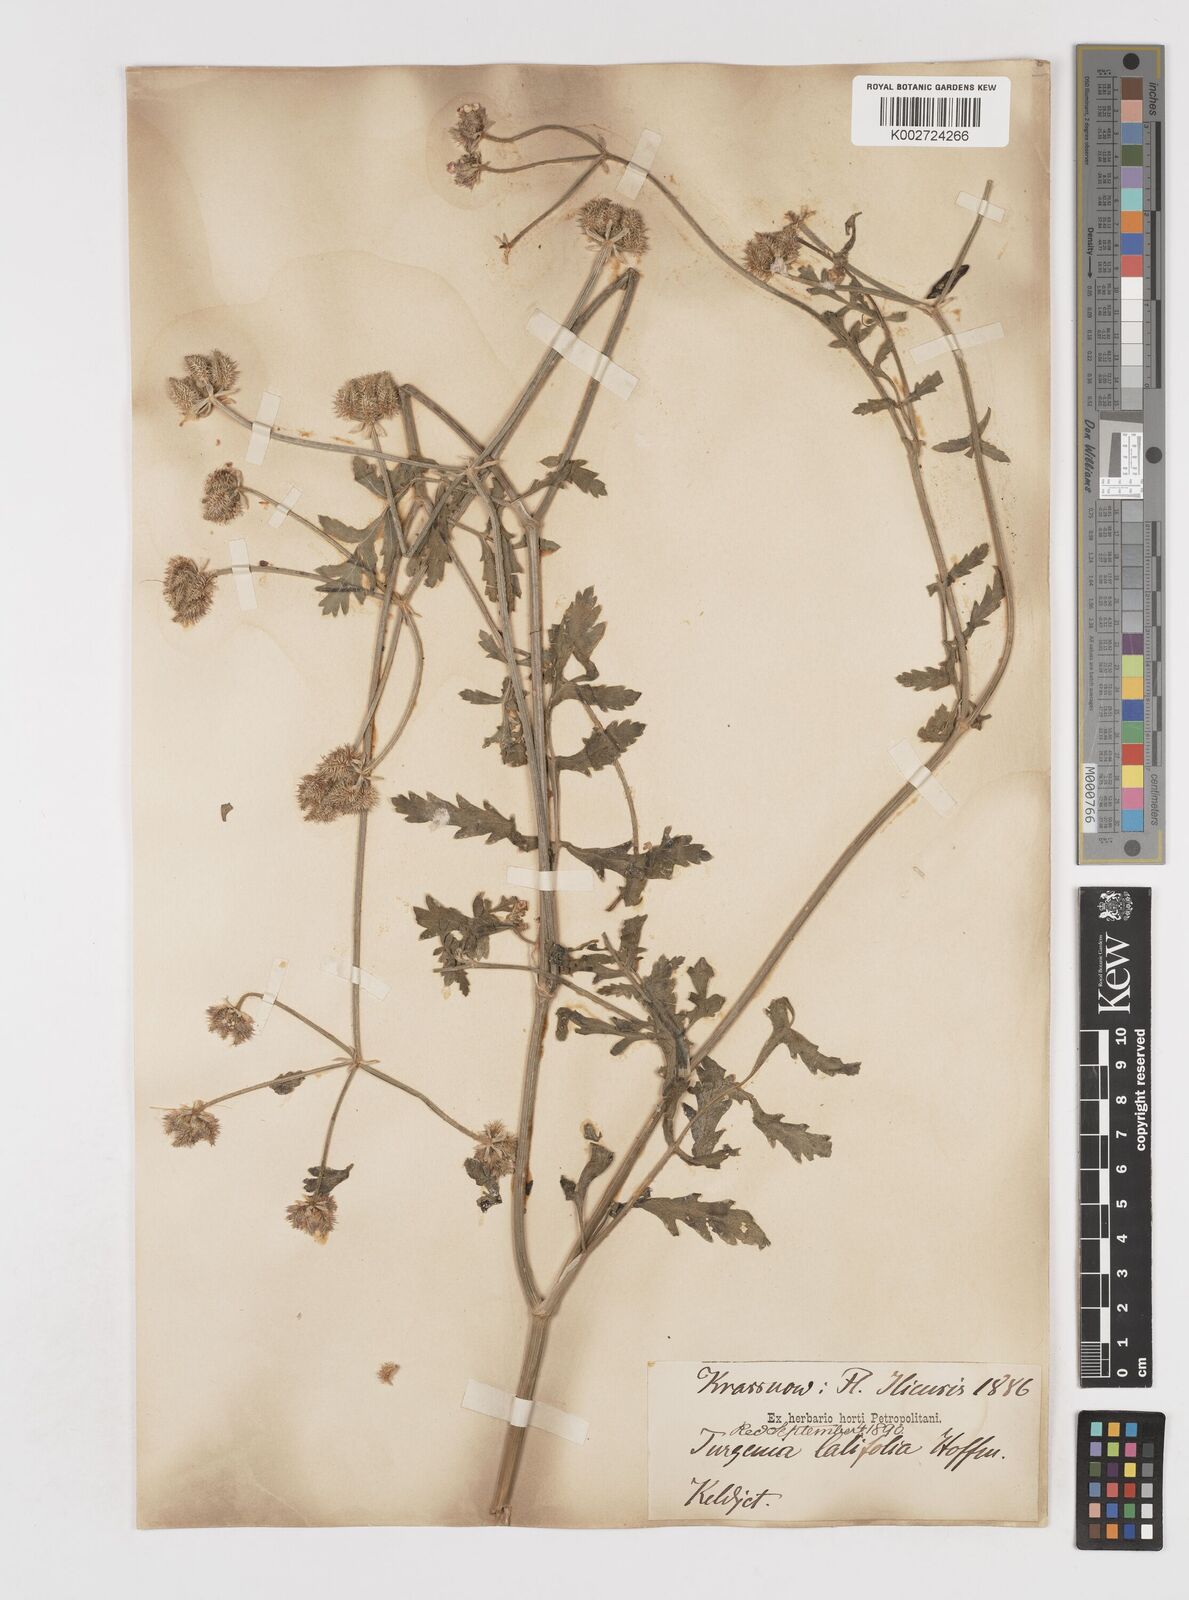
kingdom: Plantae
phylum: Tracheophyta
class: Magnoliopsida
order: Apiales
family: Apiaceae
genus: Turgenia
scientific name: Turgenia latifolia
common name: Greater bur-parsley
